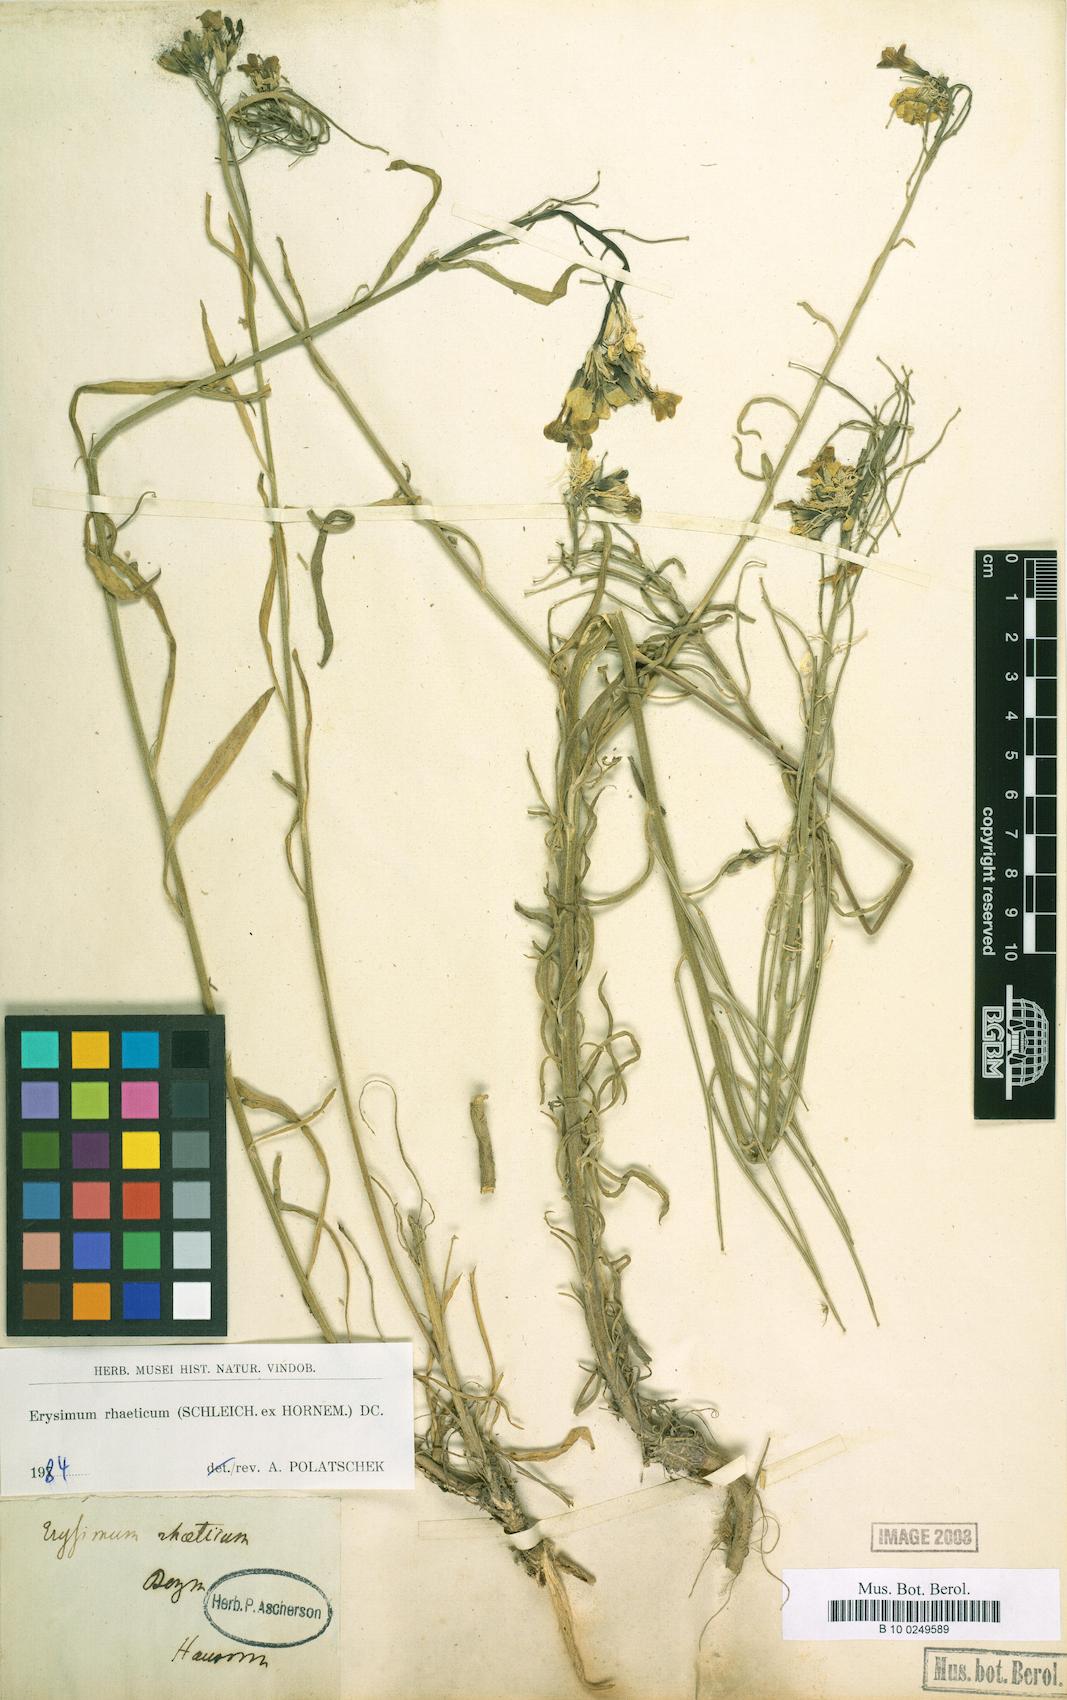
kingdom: Plantae
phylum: Tracheophyta
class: Magnoliopsida
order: Brassicales
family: Brassicaceae
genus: Erysimum
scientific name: Erysimum rhaeticum
